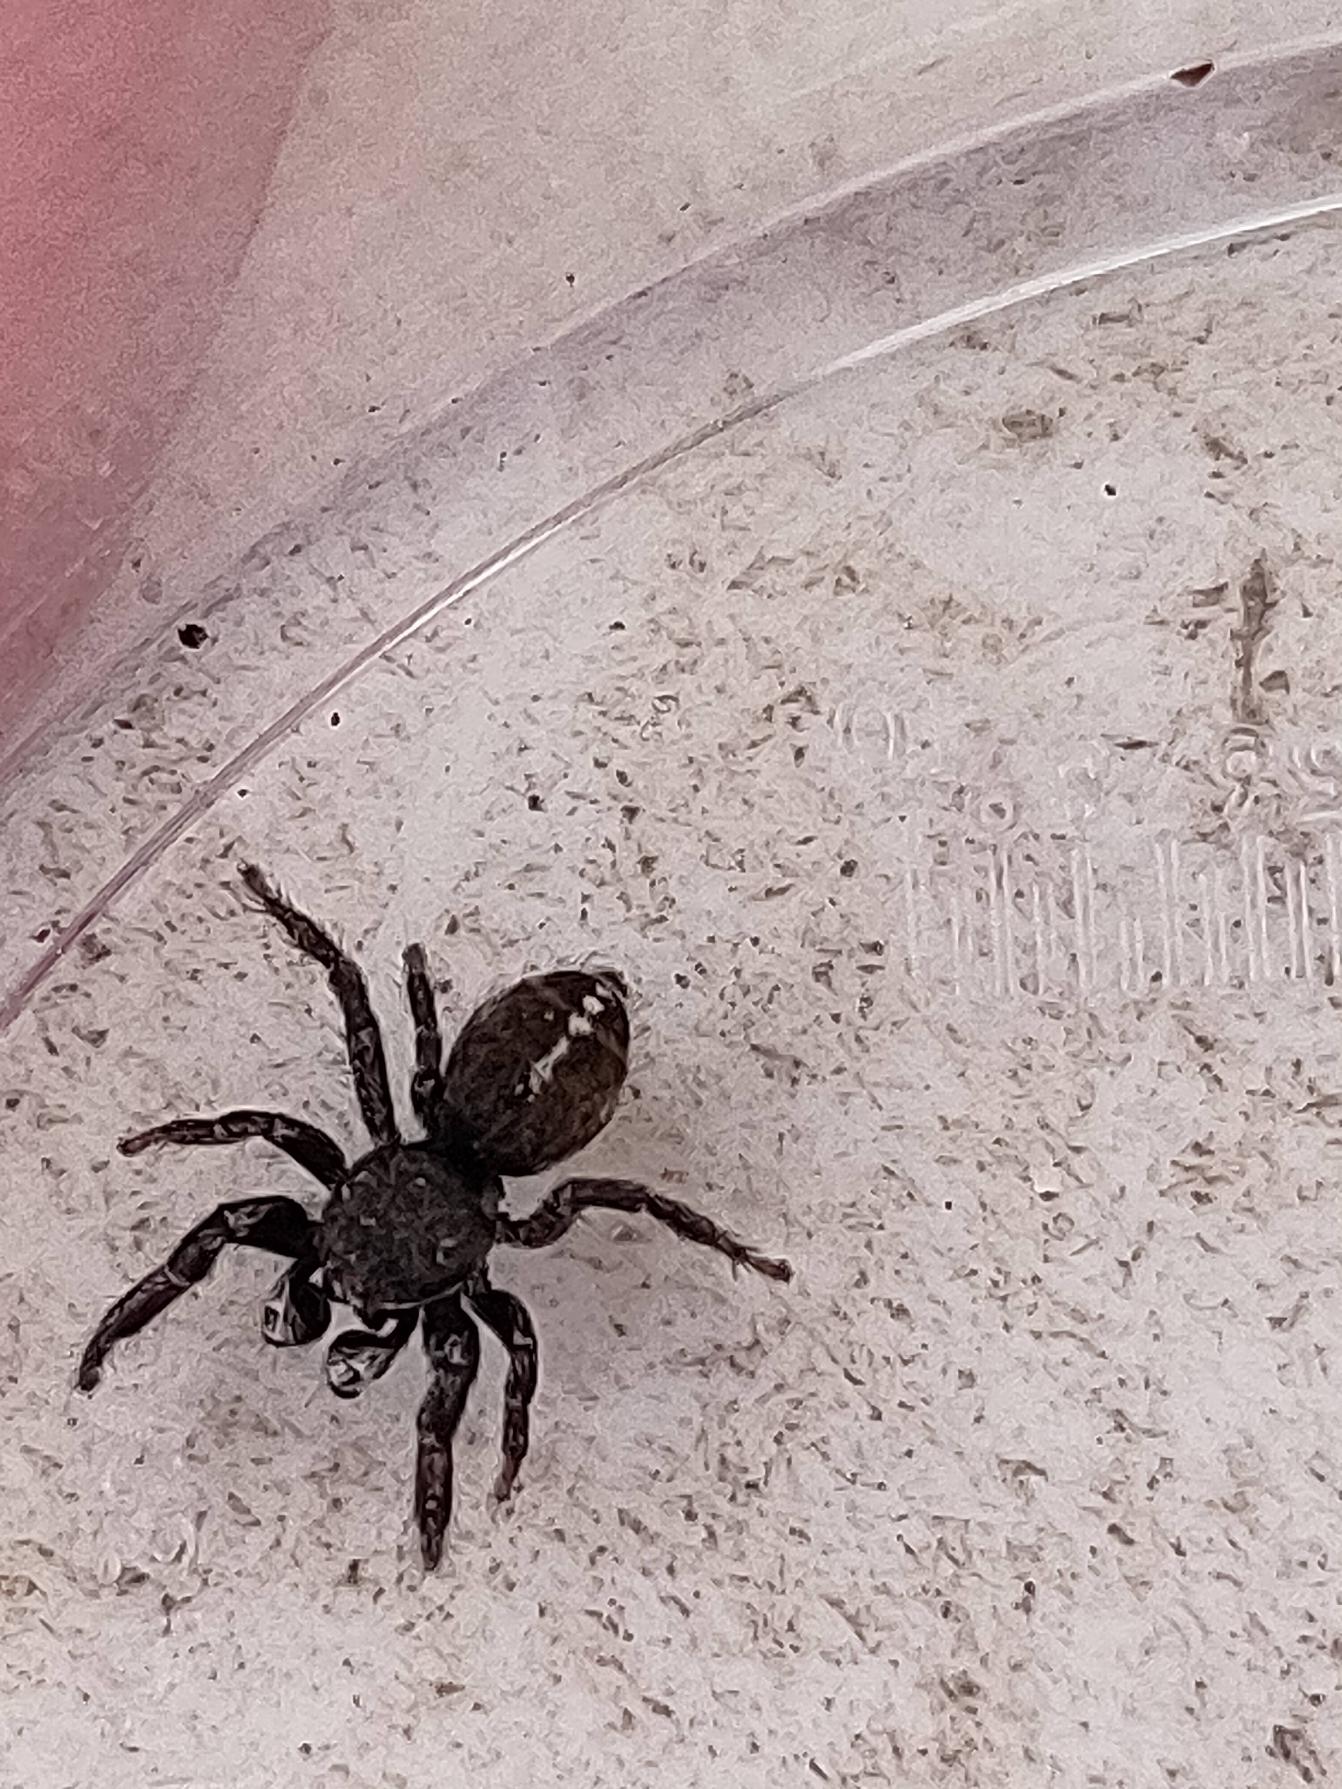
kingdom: Animalia
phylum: Arthropoda
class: Arachnida
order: Araneae
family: Salticidae
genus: Pellenes
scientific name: Pellenes tripunctatus
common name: Treplettet springedderkop
